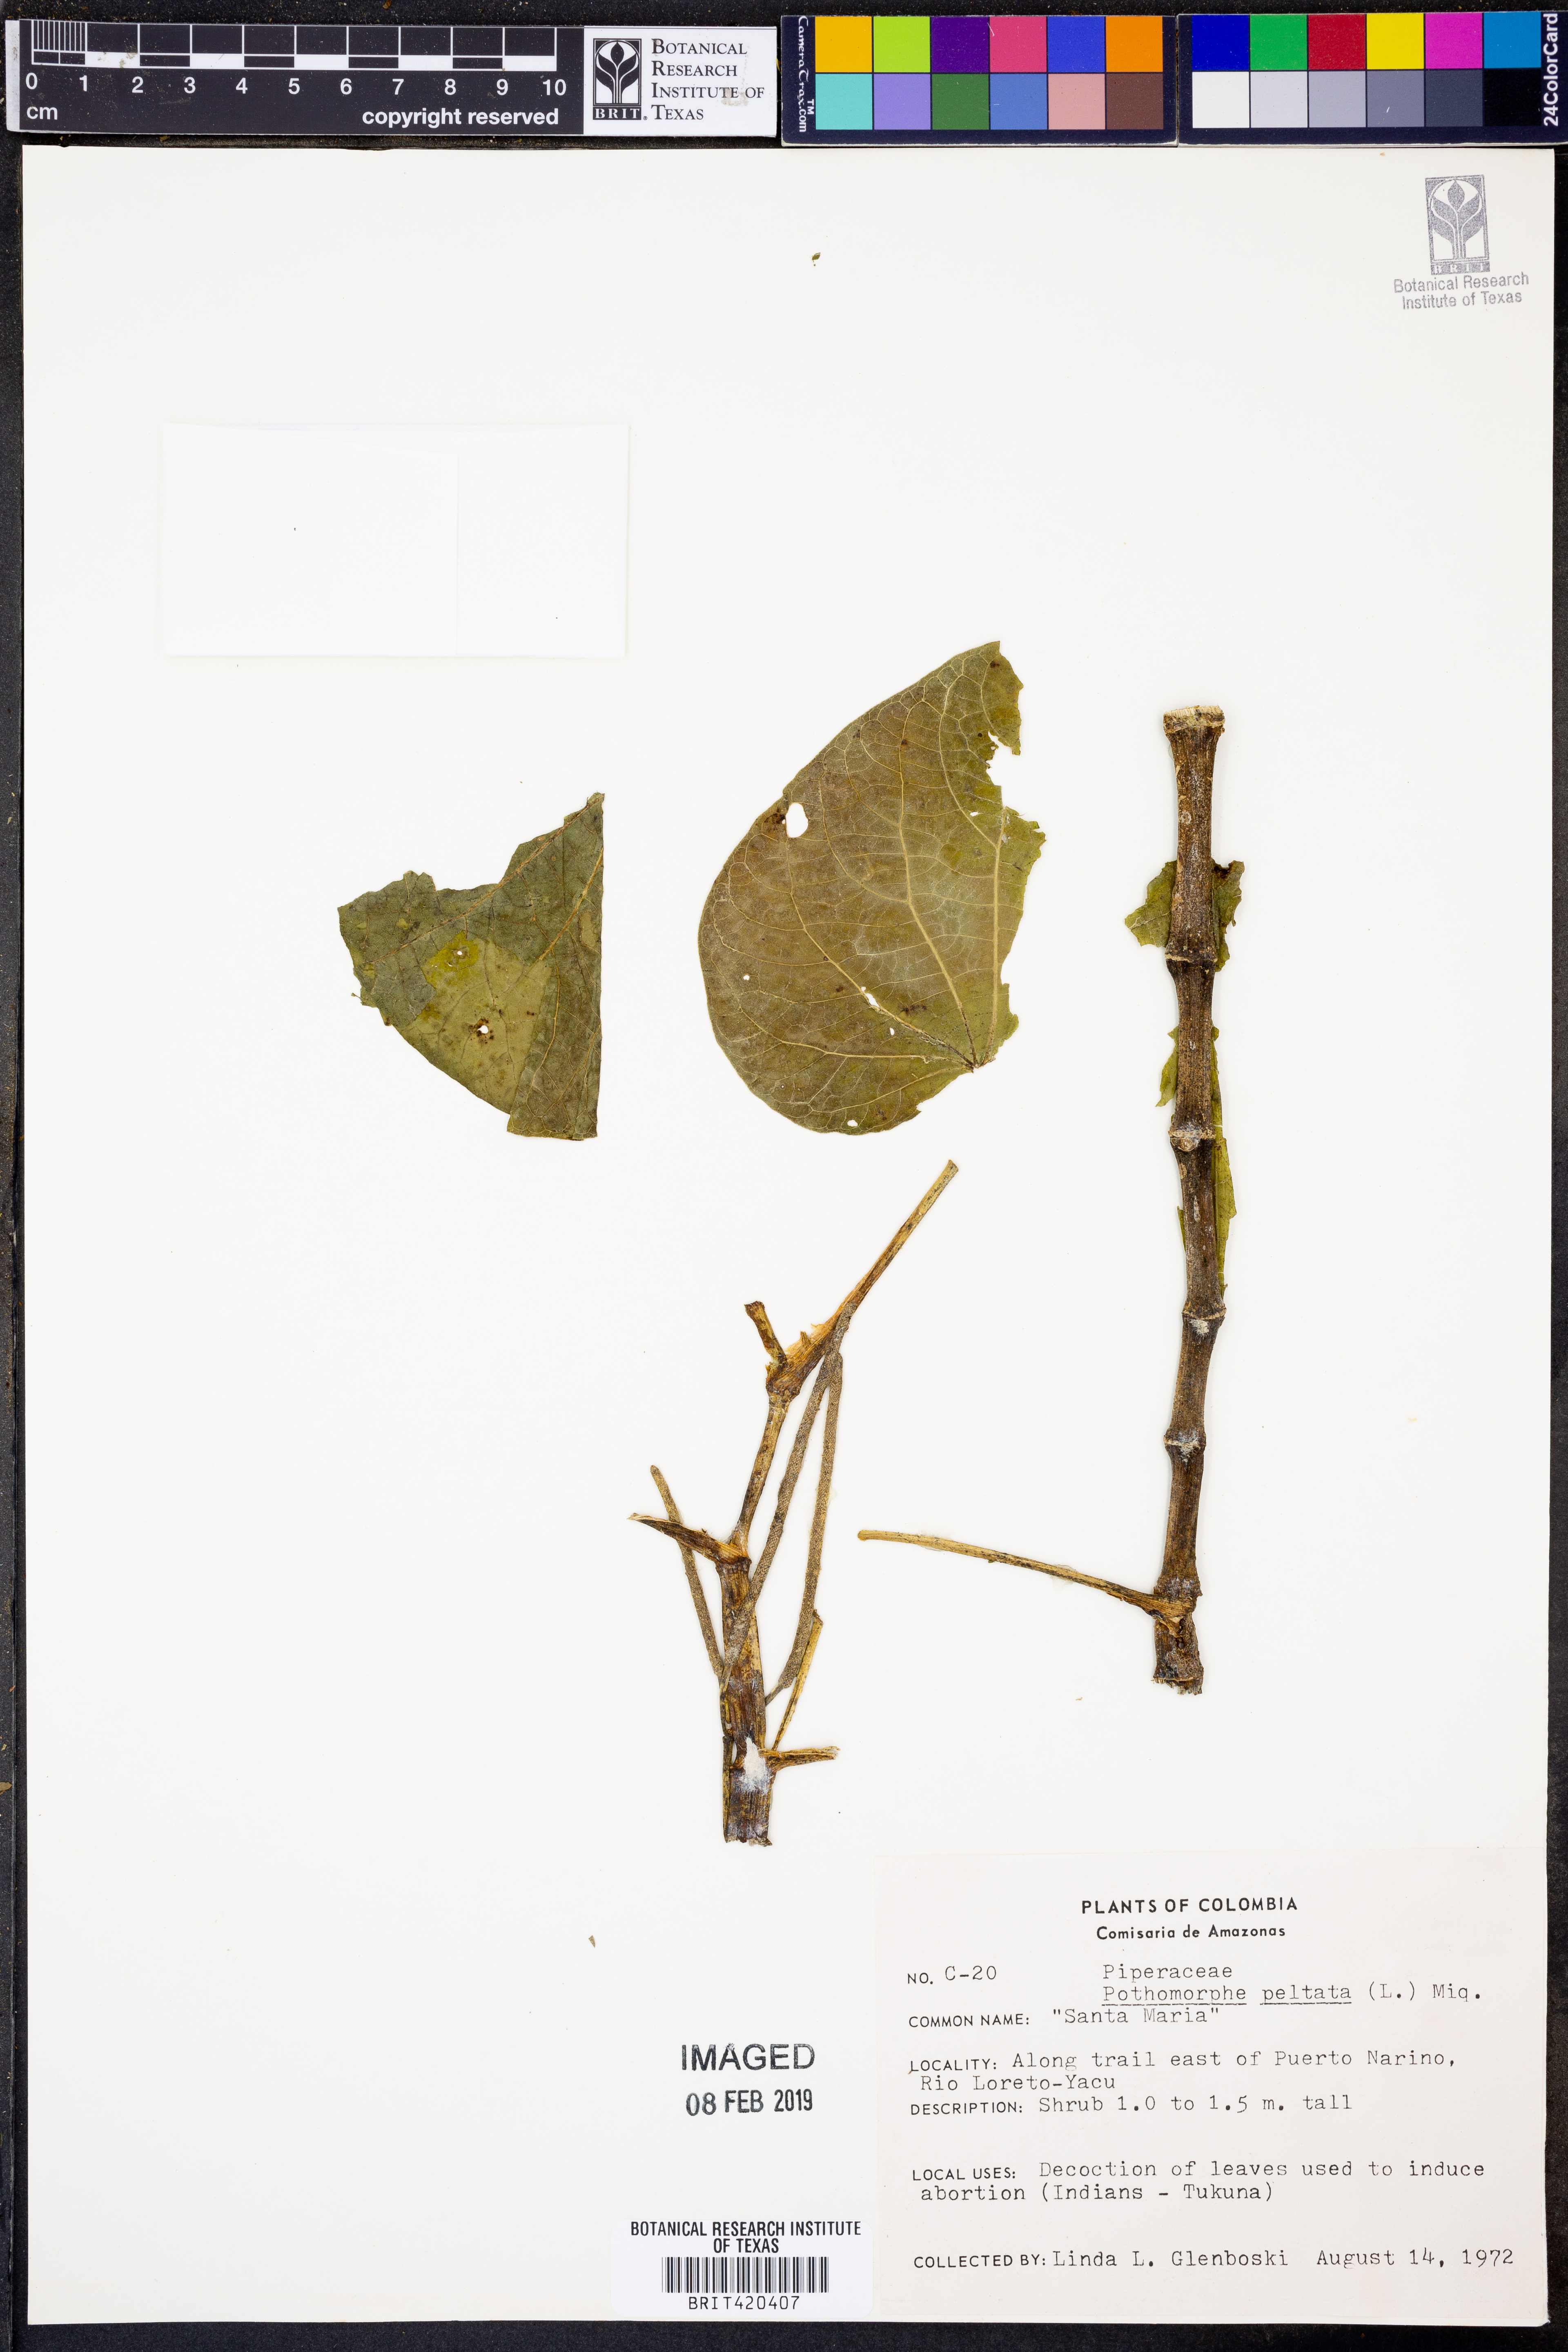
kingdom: Plantae
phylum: Tracheophyta
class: Magnoliopsida
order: Piperales
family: Piperaceae
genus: Piper
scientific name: Piper peltatum
